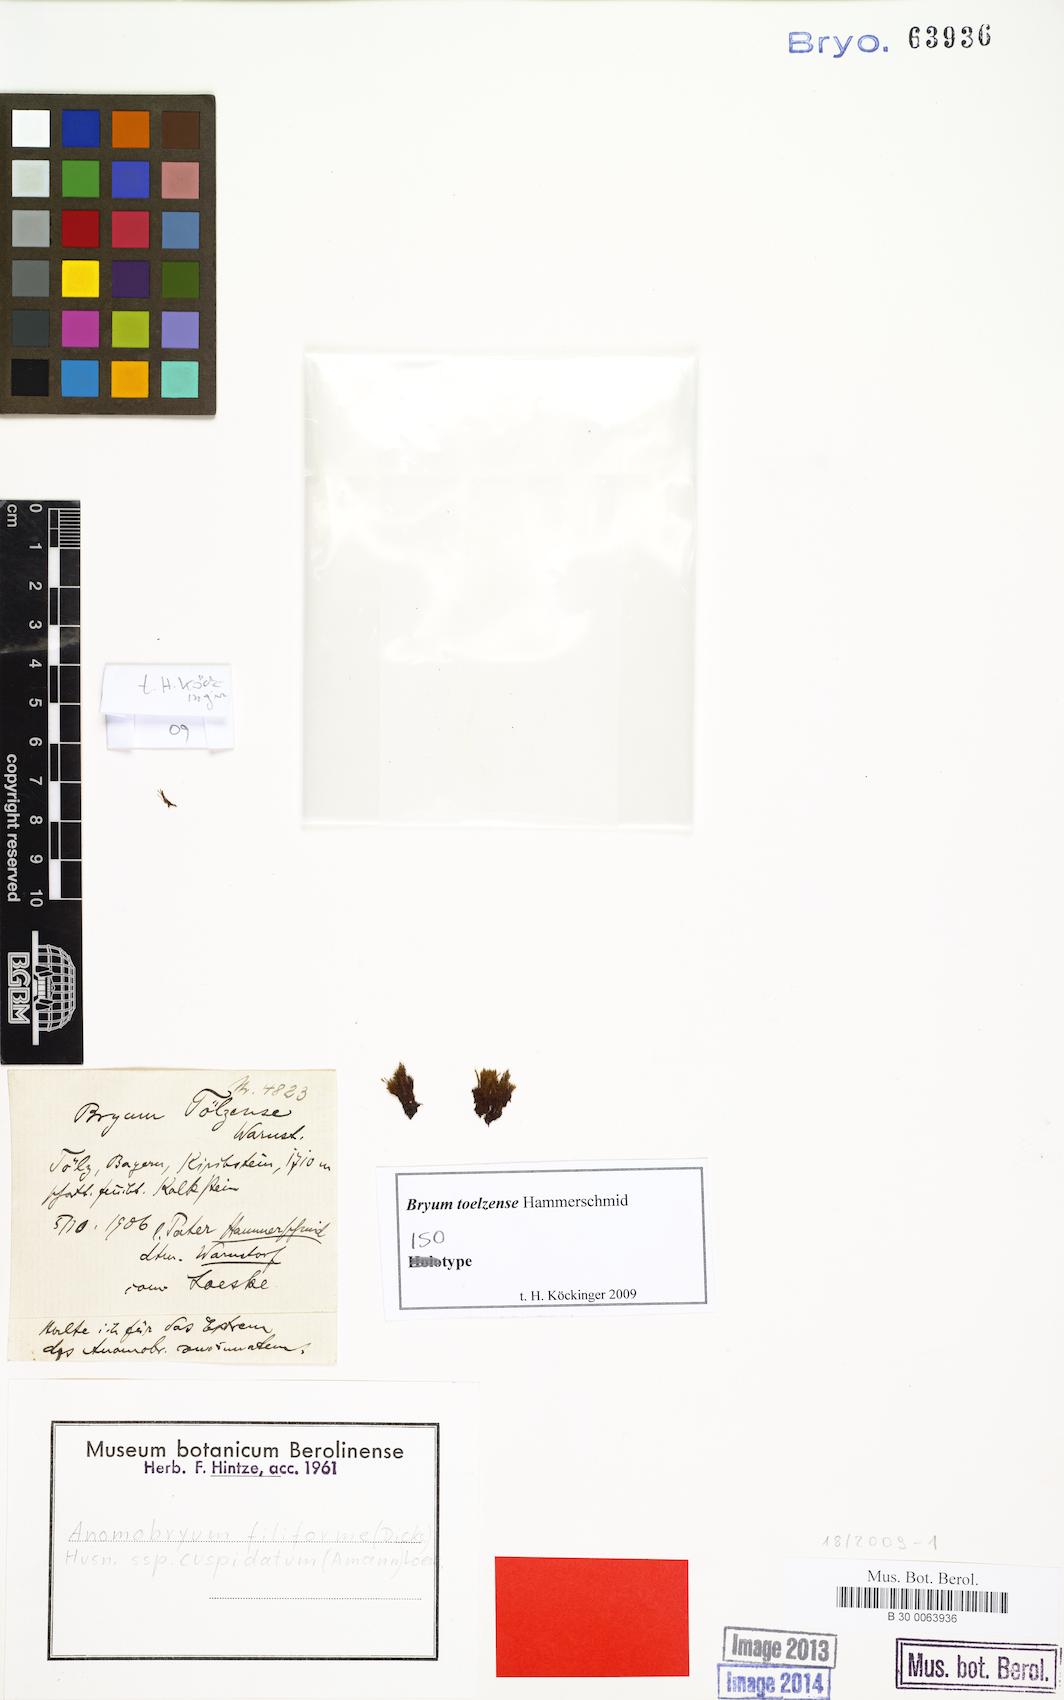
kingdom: Plantae
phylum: Bryophyta
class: Bryopsida
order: Bryales
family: Bryaceae
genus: Bryum
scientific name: Bryum
